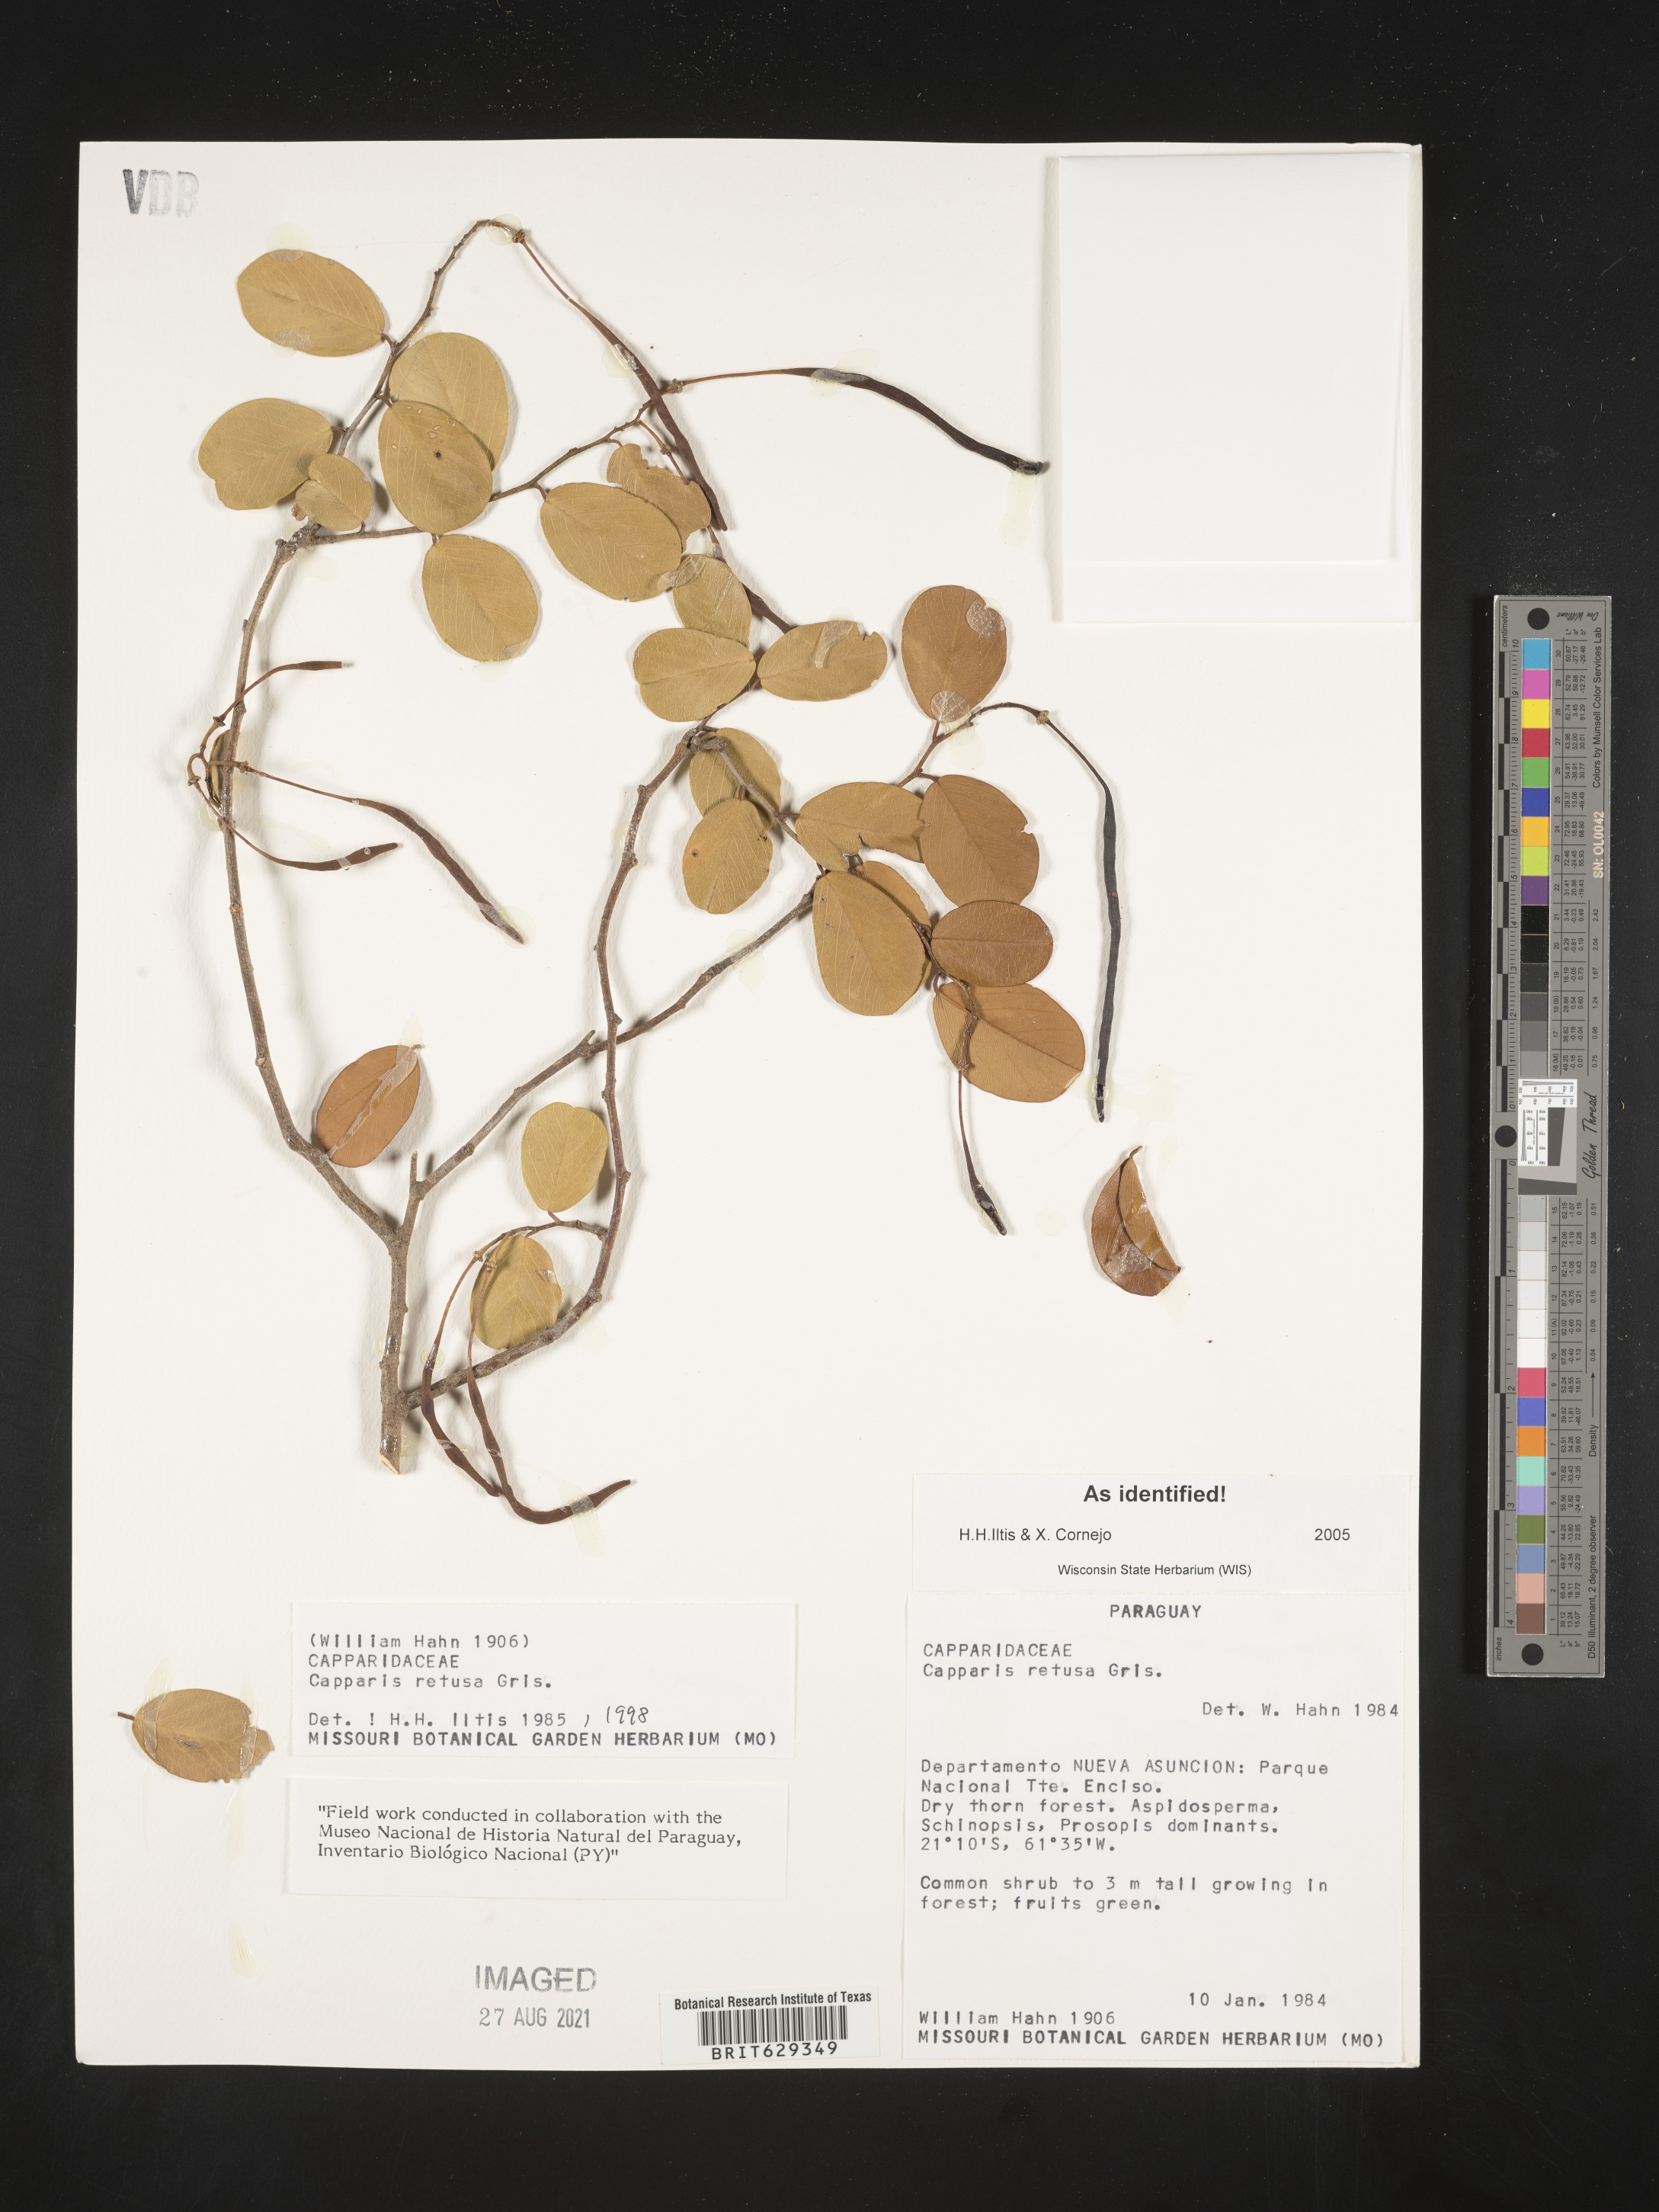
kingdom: Plantae
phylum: Tracheophyta
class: Magnoliopsida
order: Brassicales
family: Capparaceae
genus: Cynophalla
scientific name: Cynophalla retusa
